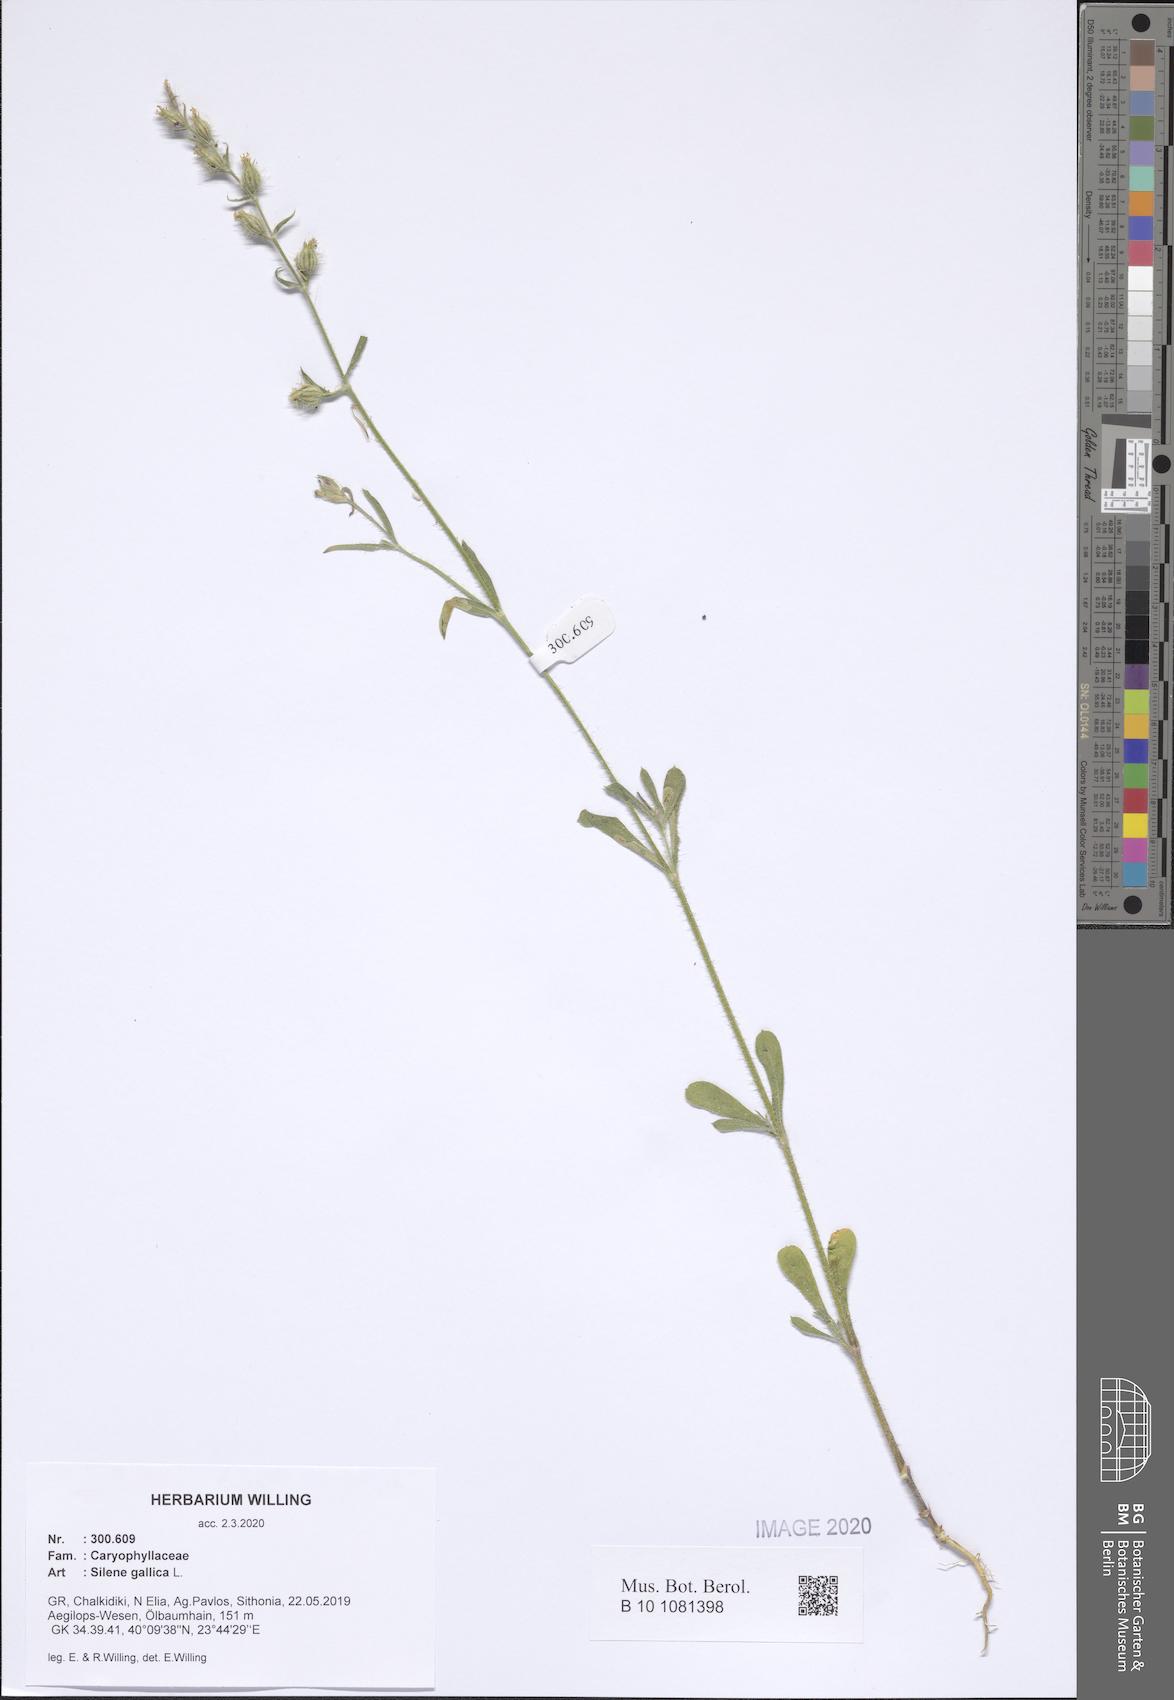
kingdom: Plantae
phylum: Tracheophyta
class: Magnoliopsida
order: Caryophyllales
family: Caryophyllaceae
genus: Silene
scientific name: Silene gallica
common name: Small-flowered catchfly
